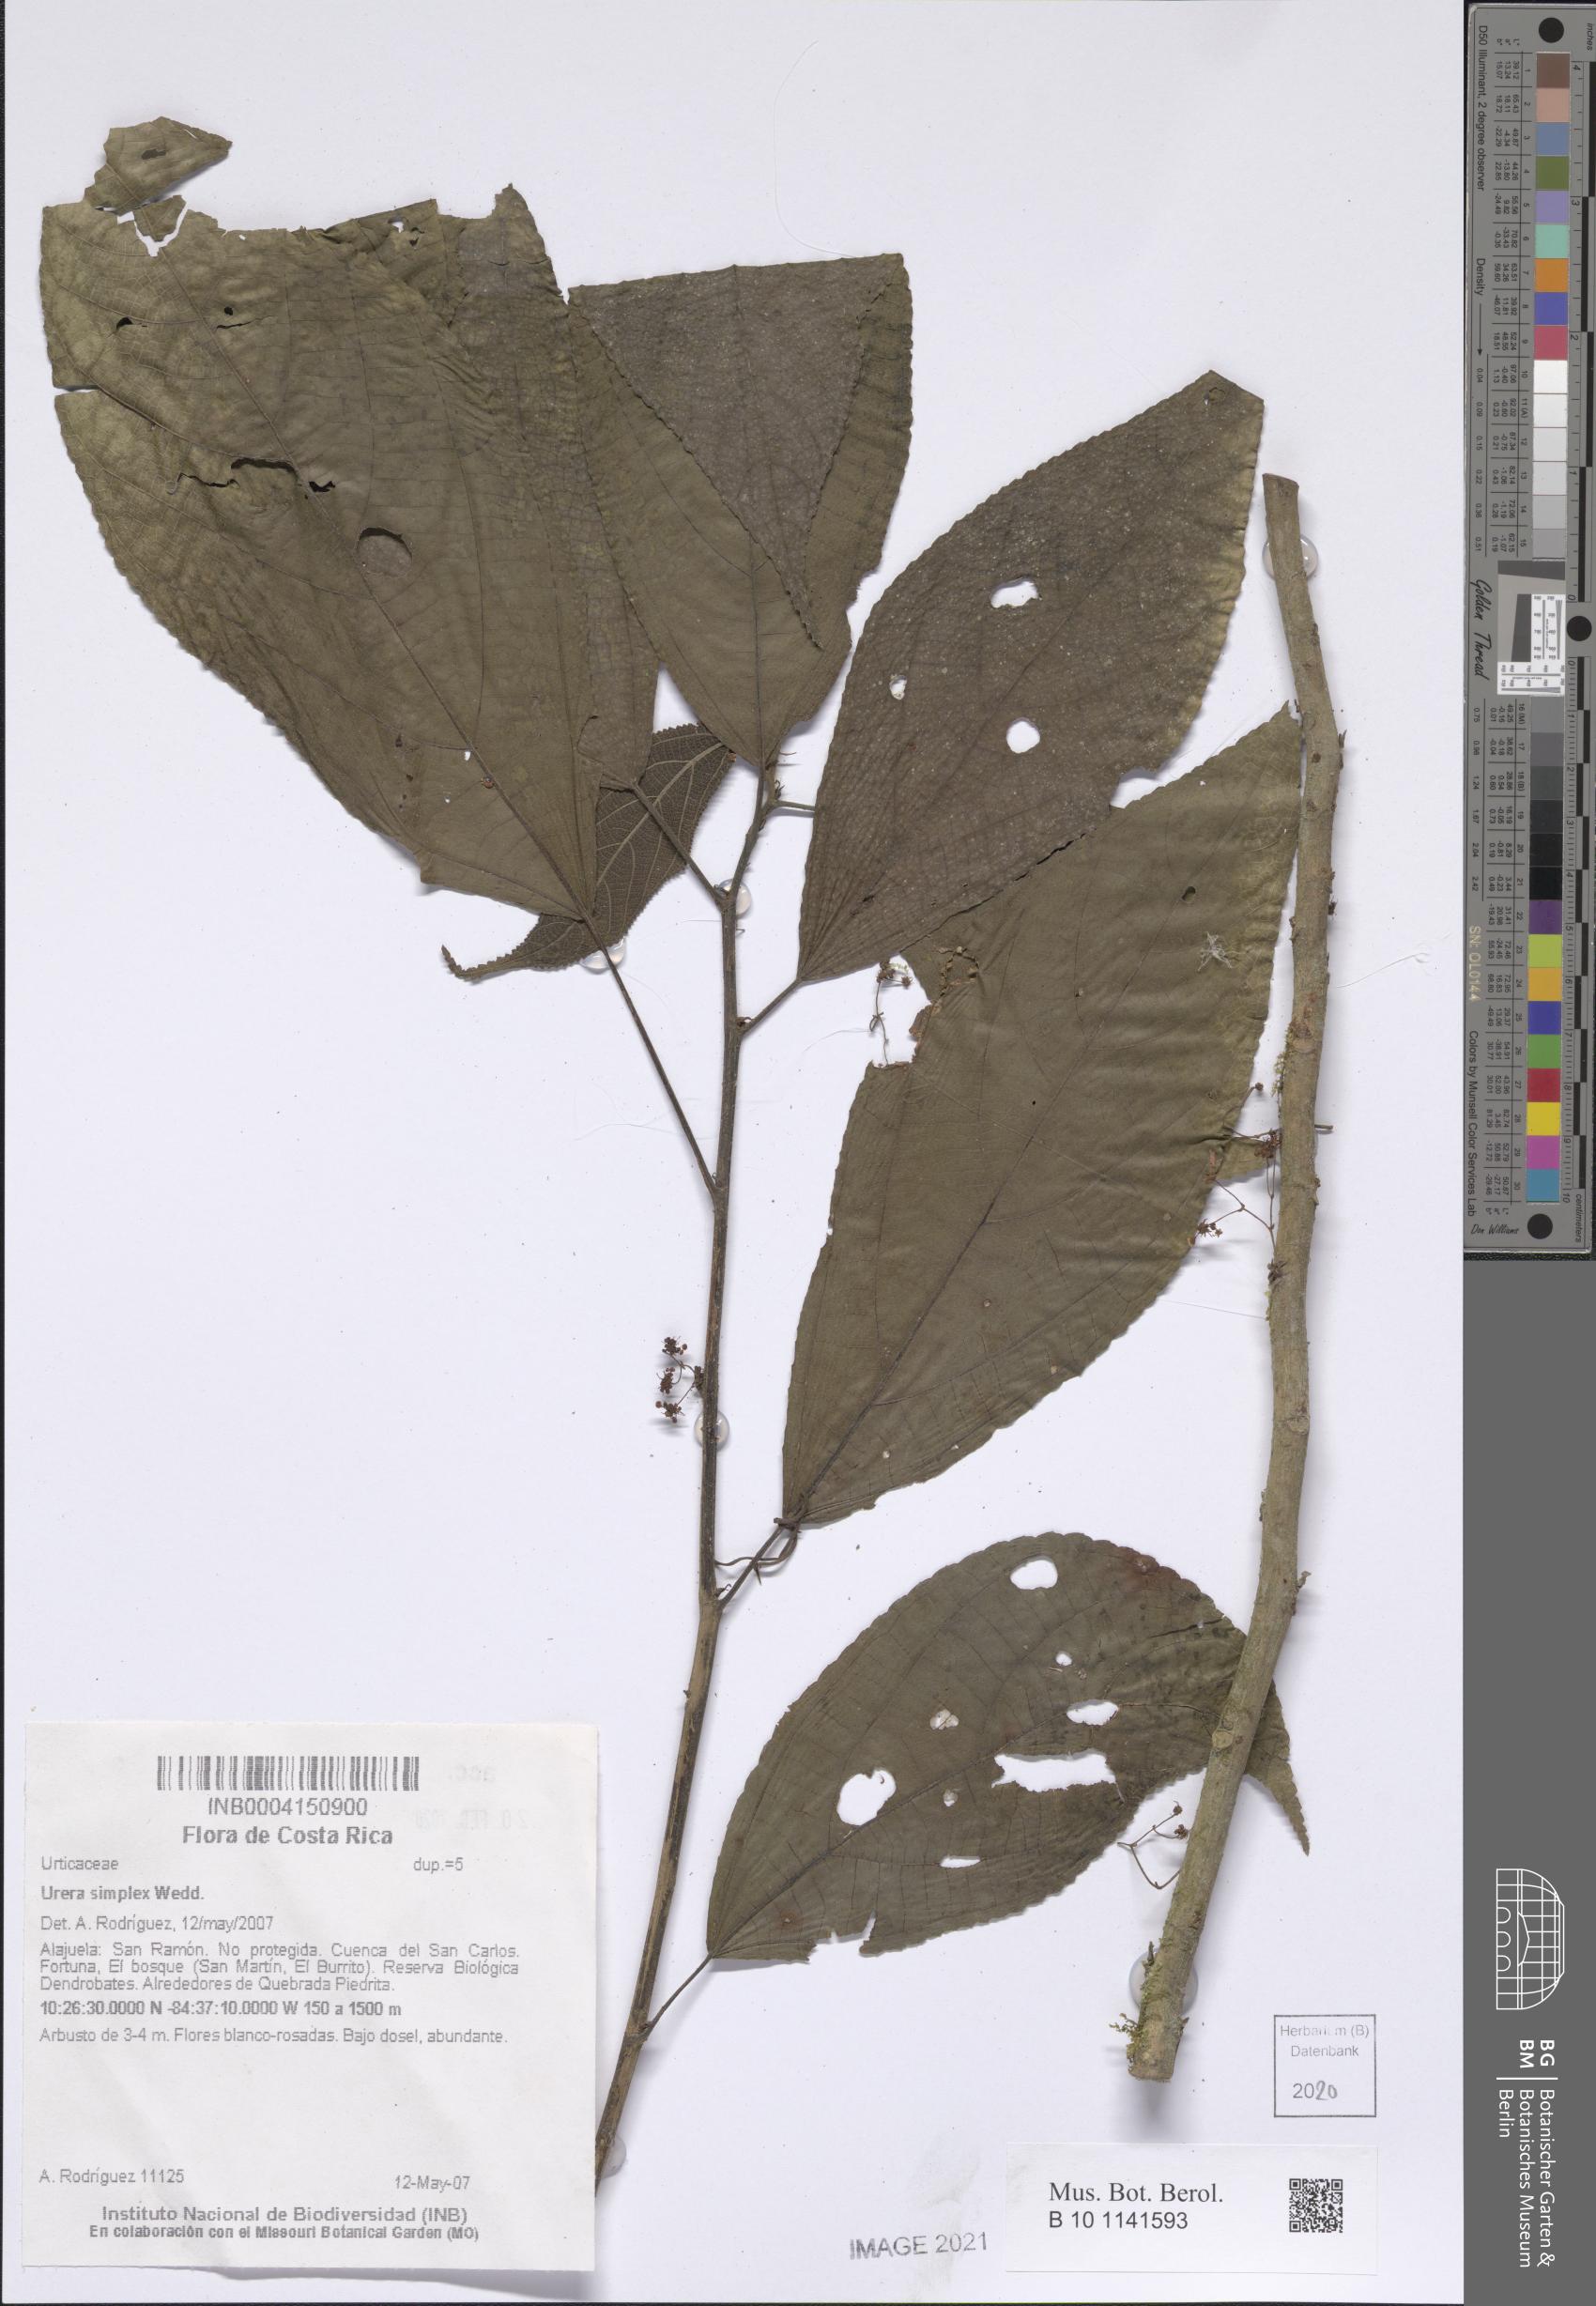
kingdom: Plantae
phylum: Tracheophyta
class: Magnoliopsida
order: Rosales
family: Urticaceae
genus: Urera
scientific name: Urera simplex
